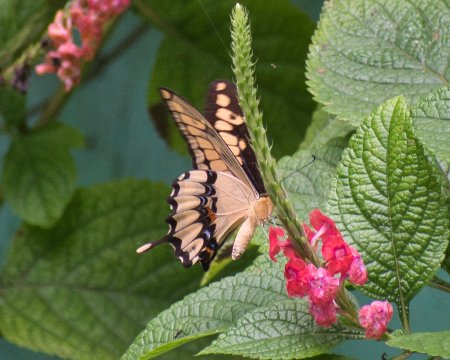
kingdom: Animalia
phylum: Arthropoda
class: Insecta
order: Lepidoptera
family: Papilionidae
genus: Papilio
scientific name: Papilio thoas
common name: Thoas Swallowtail
